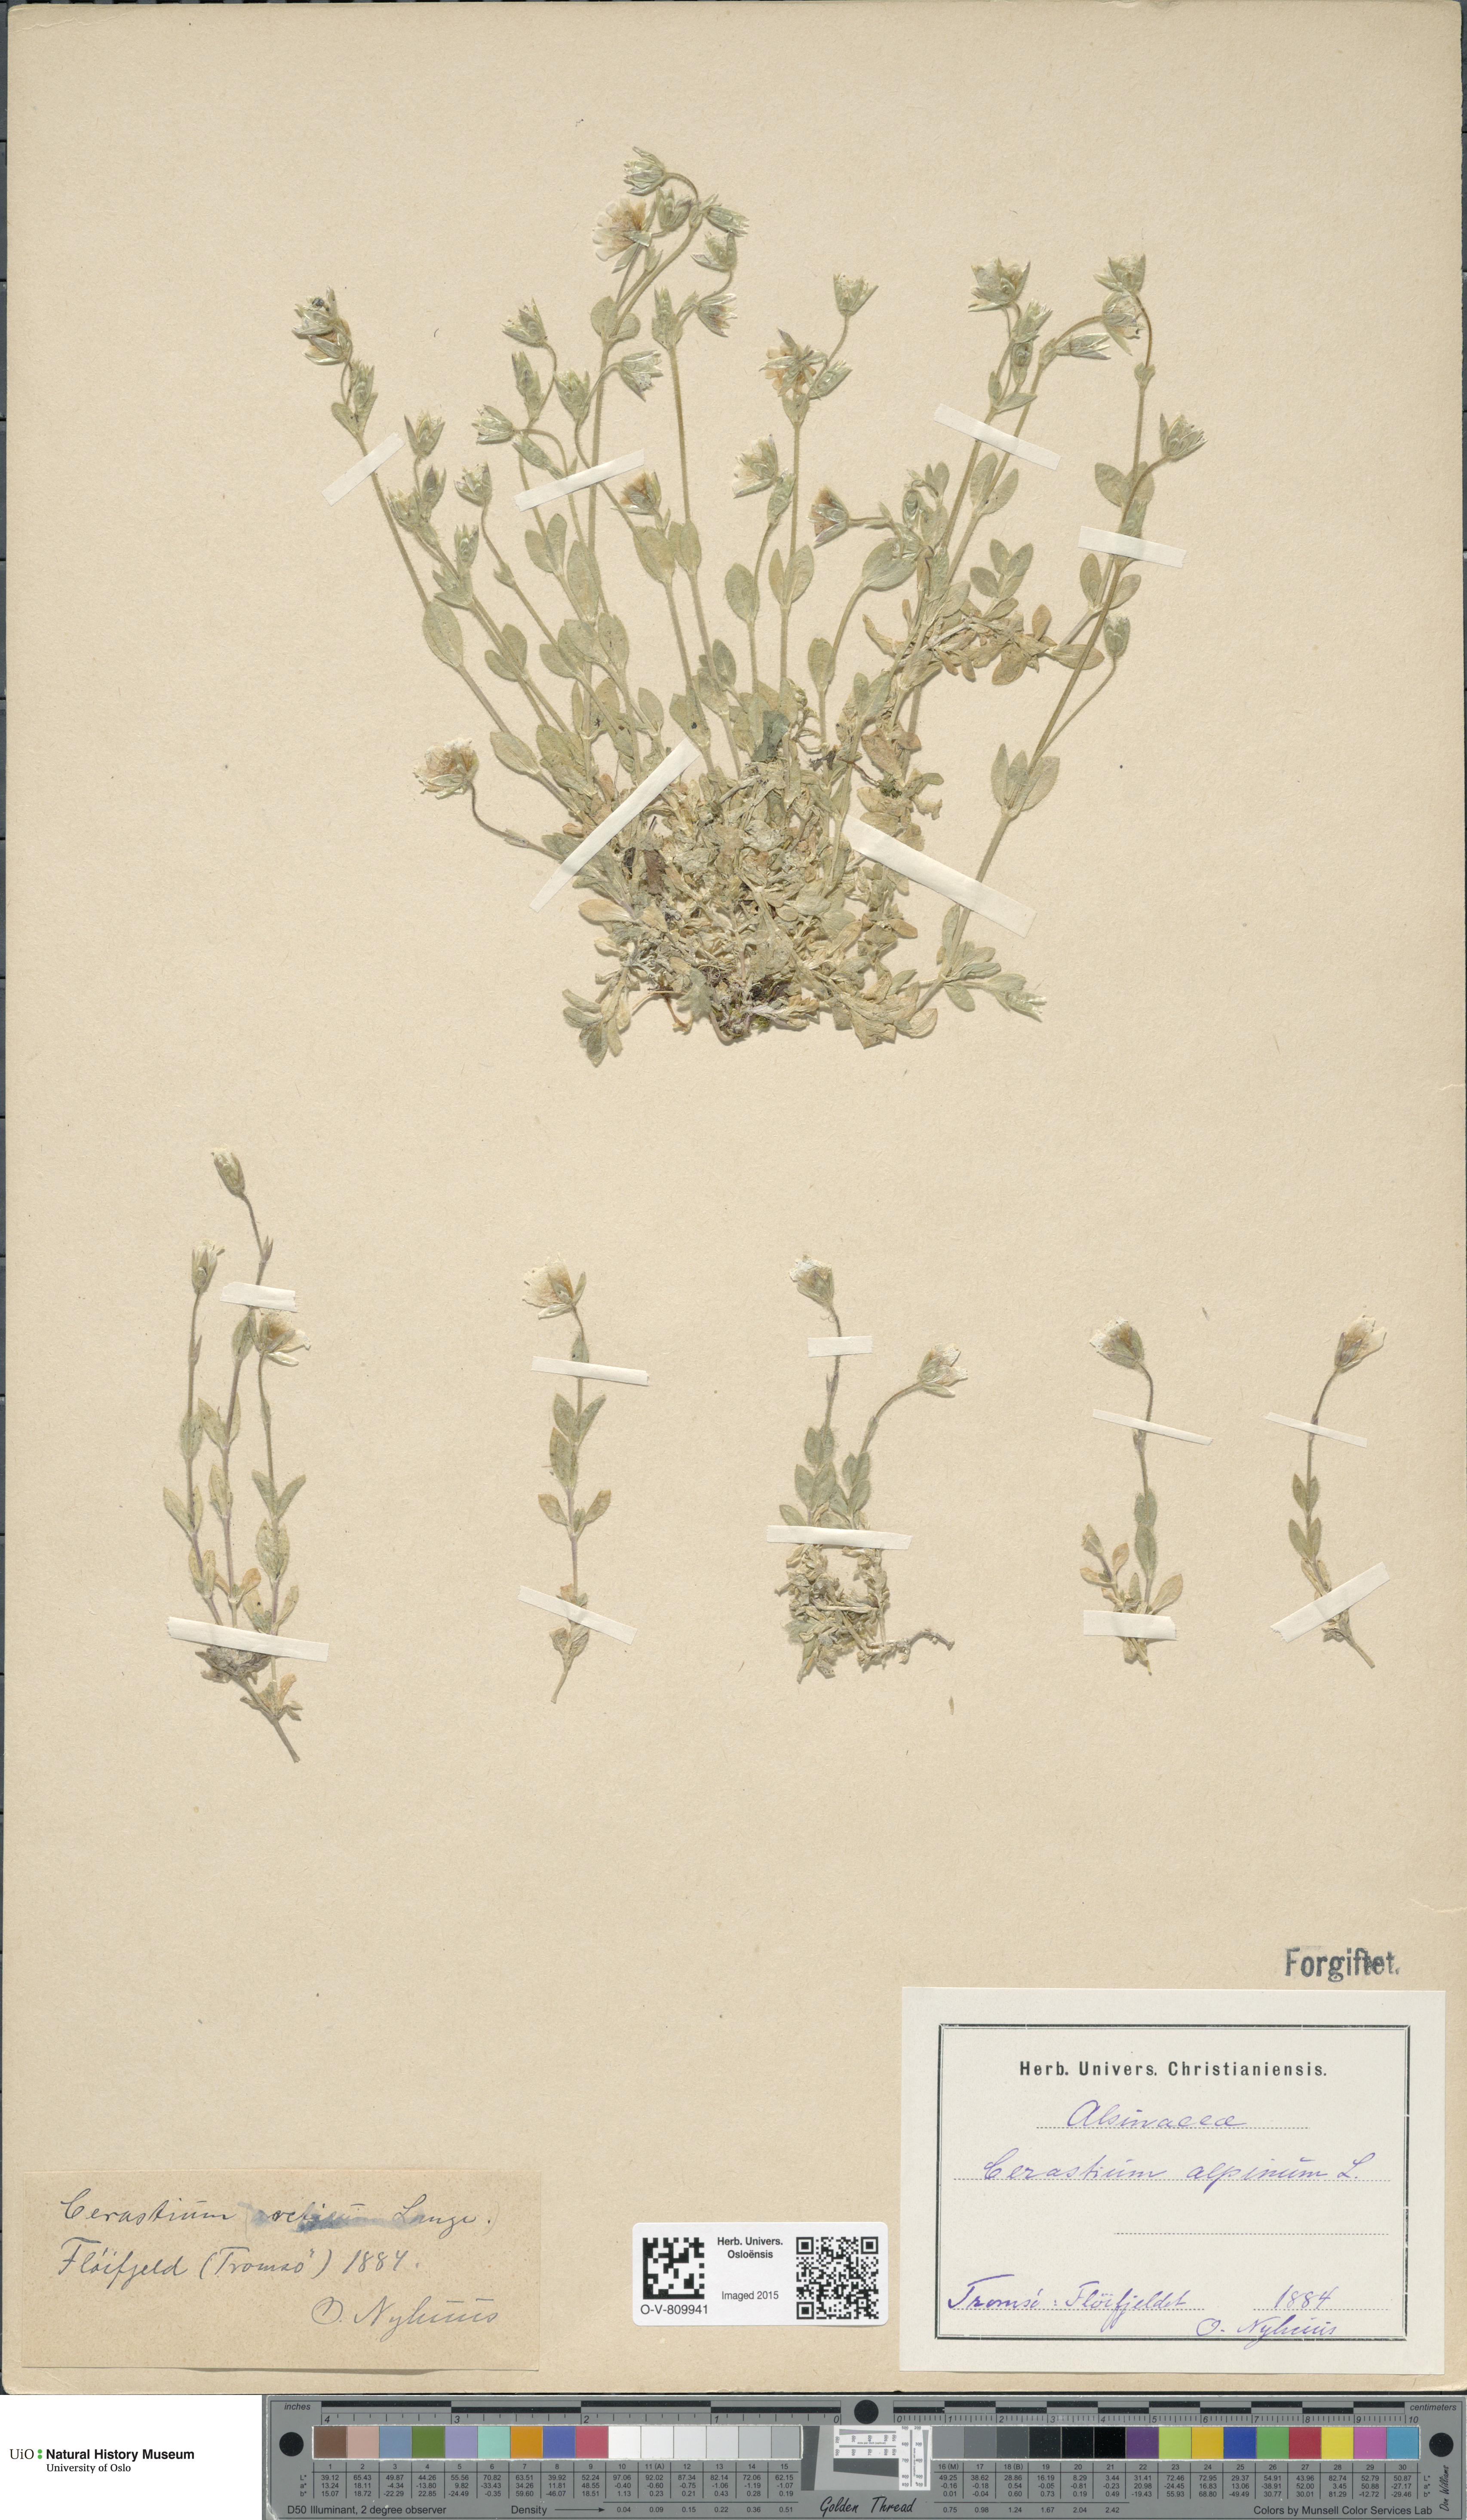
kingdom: Plantae
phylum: Tracheophyta
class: Magnoliopsida
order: Caryophyllales
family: Caryophyllaceae
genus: Cerastium
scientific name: Cerastium alpinum
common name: Alpine mouse-ear
